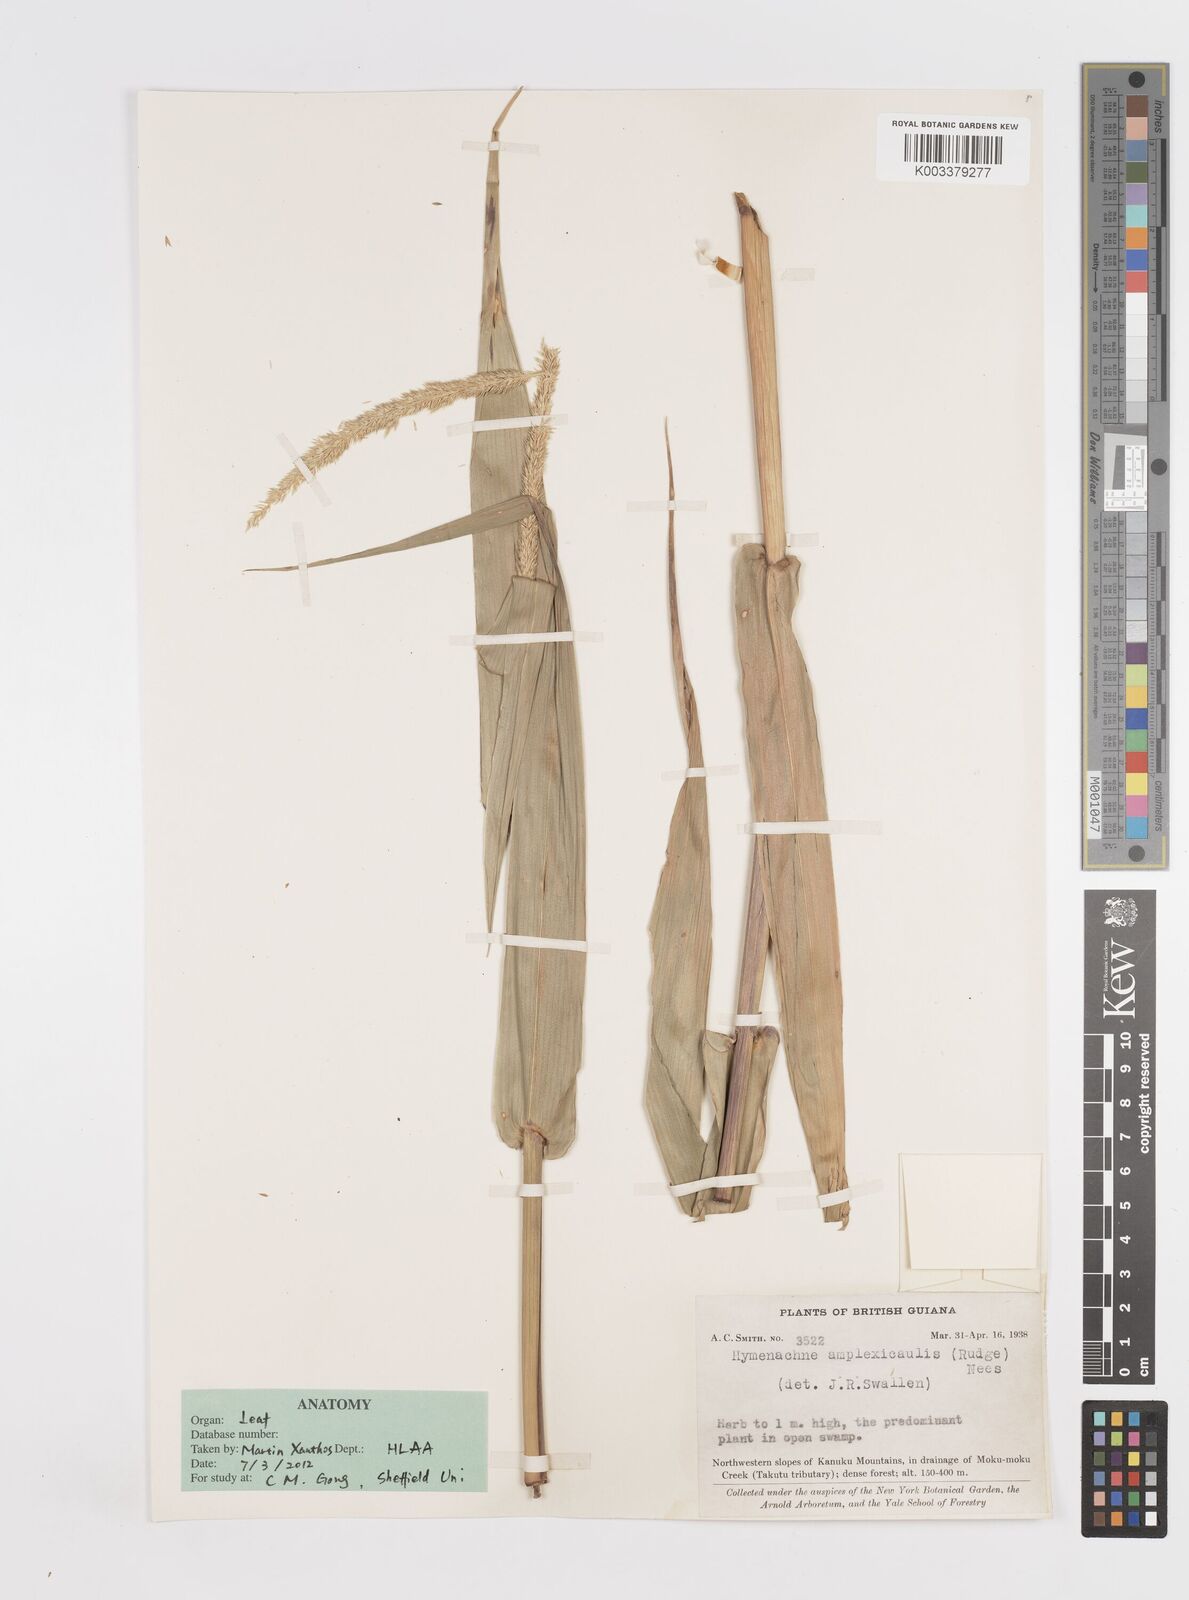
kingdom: Plantae
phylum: Tracheophyta
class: Liliopsida
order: Poales
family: Poaceae
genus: Hymenachne
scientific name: Hymenachne amplexicaulis
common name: Olive hymenachne
